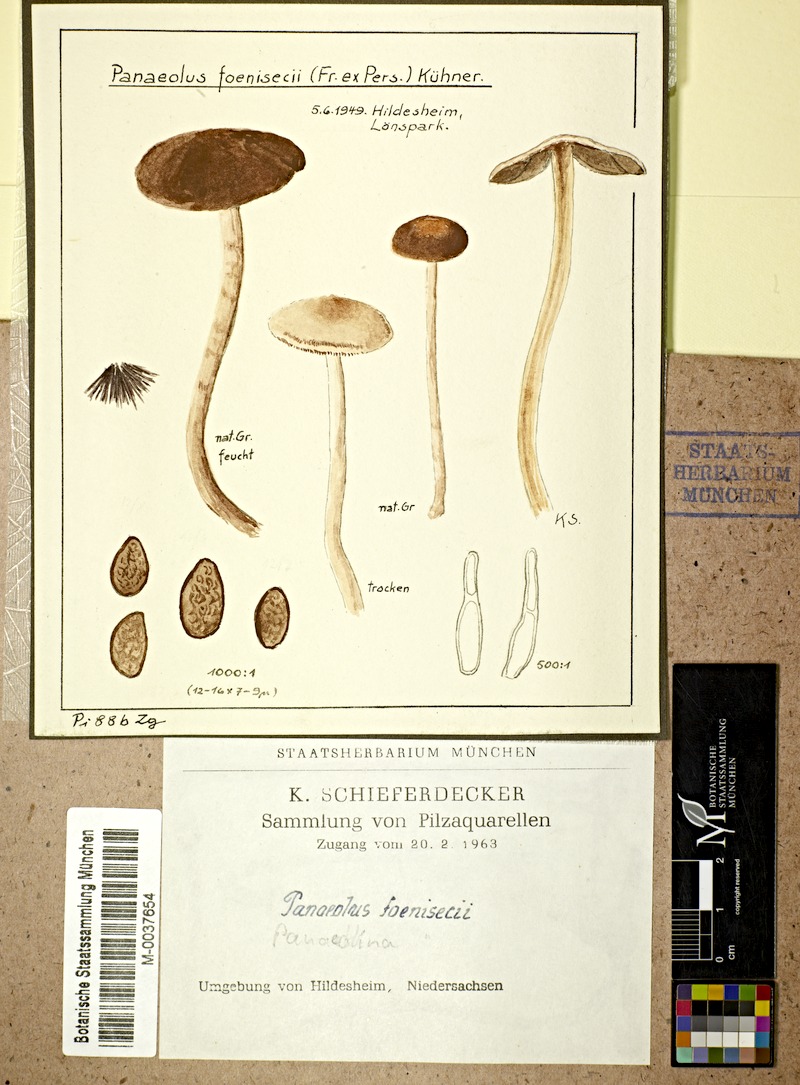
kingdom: Fungi
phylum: Basidiomycota
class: Agaricomycetes
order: Agaricales
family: Bolbitiaceae
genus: Panaeolina
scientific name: Panaeolina foenisecii
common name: Brown hay cap
